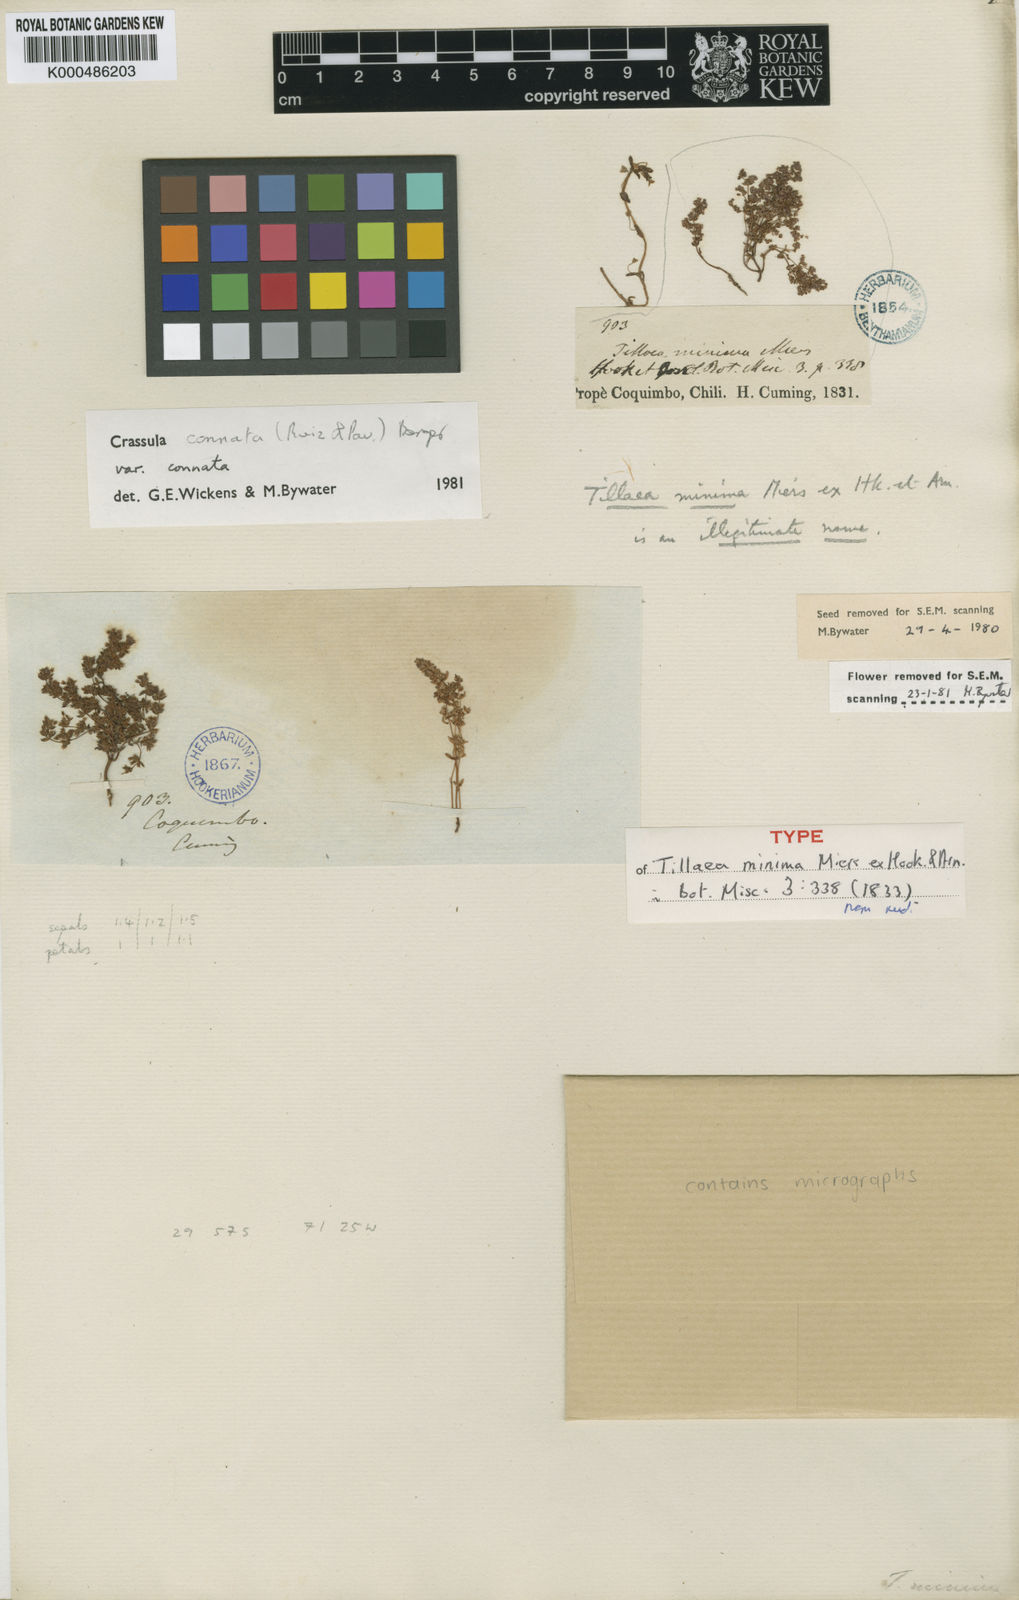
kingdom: Plantae
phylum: Tracheophyta
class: Magnoliopsida
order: Saxifragales
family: Crassulaceae
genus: Crassula
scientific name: Crassula
